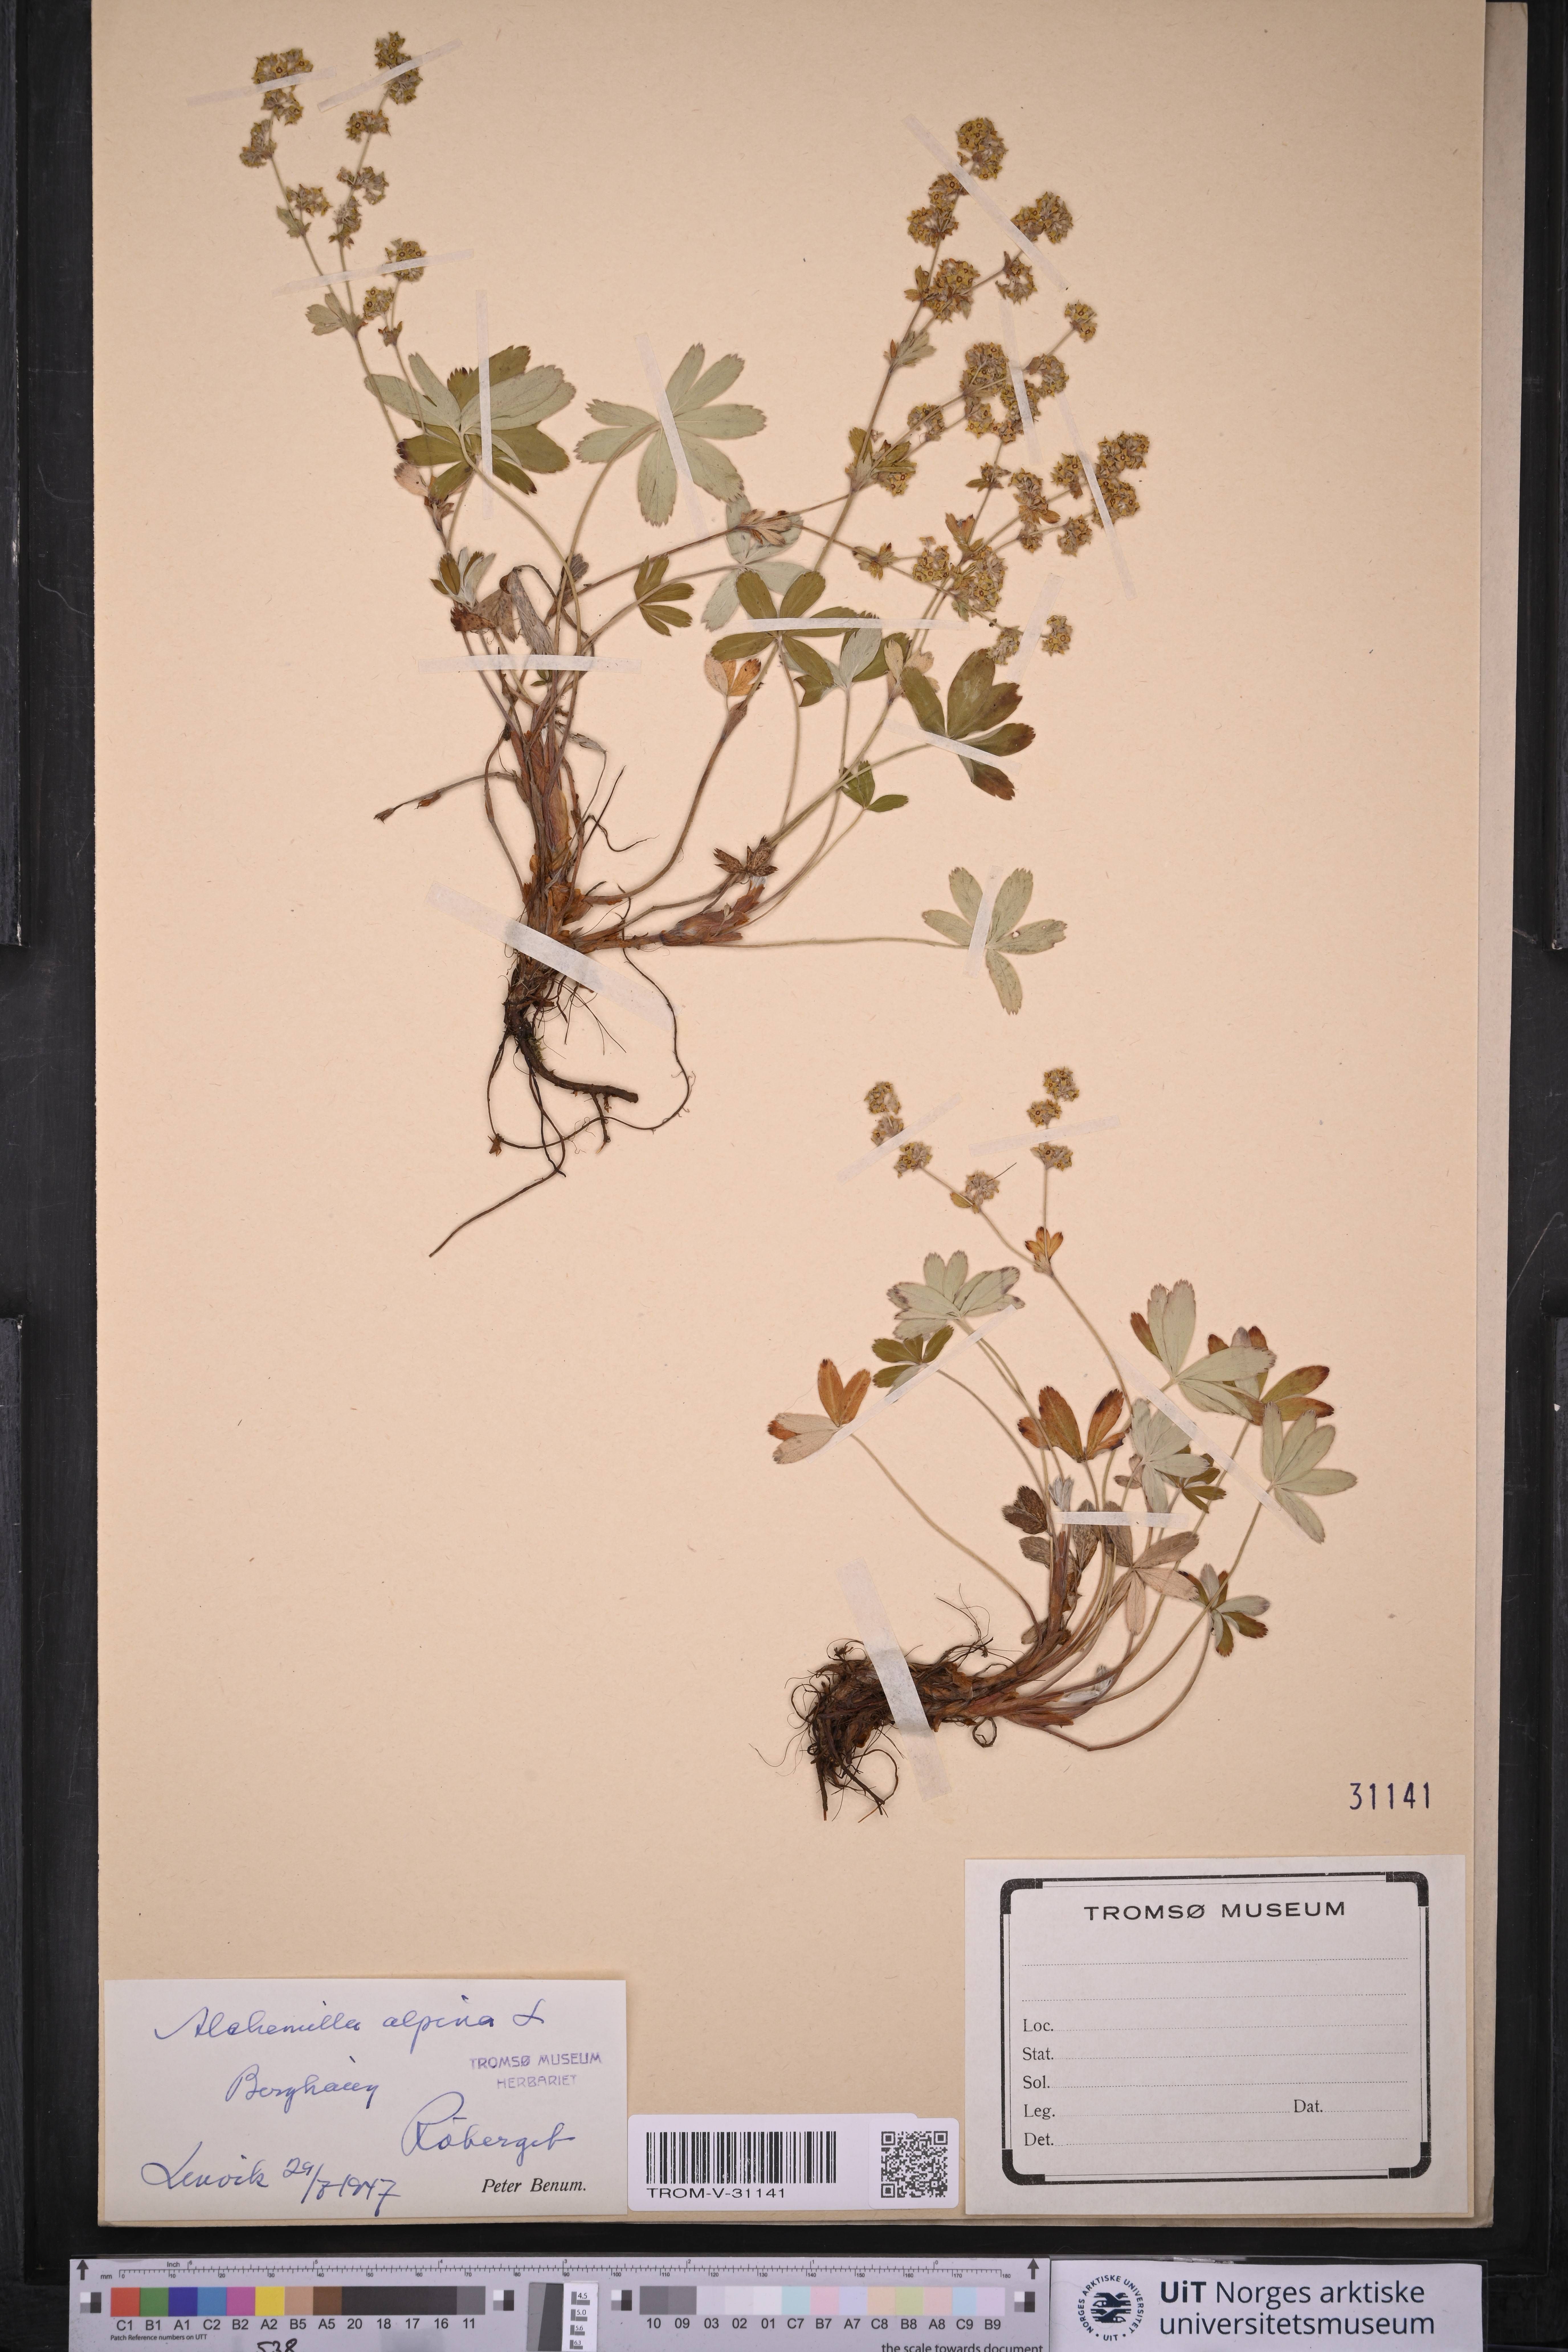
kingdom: Plantae
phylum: Tracheophyta
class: Magnoliopsida
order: Rosales
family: Rosaceae
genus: Alchemilla
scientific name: Alchemilla alpina
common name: Alpine lady's-mantle
